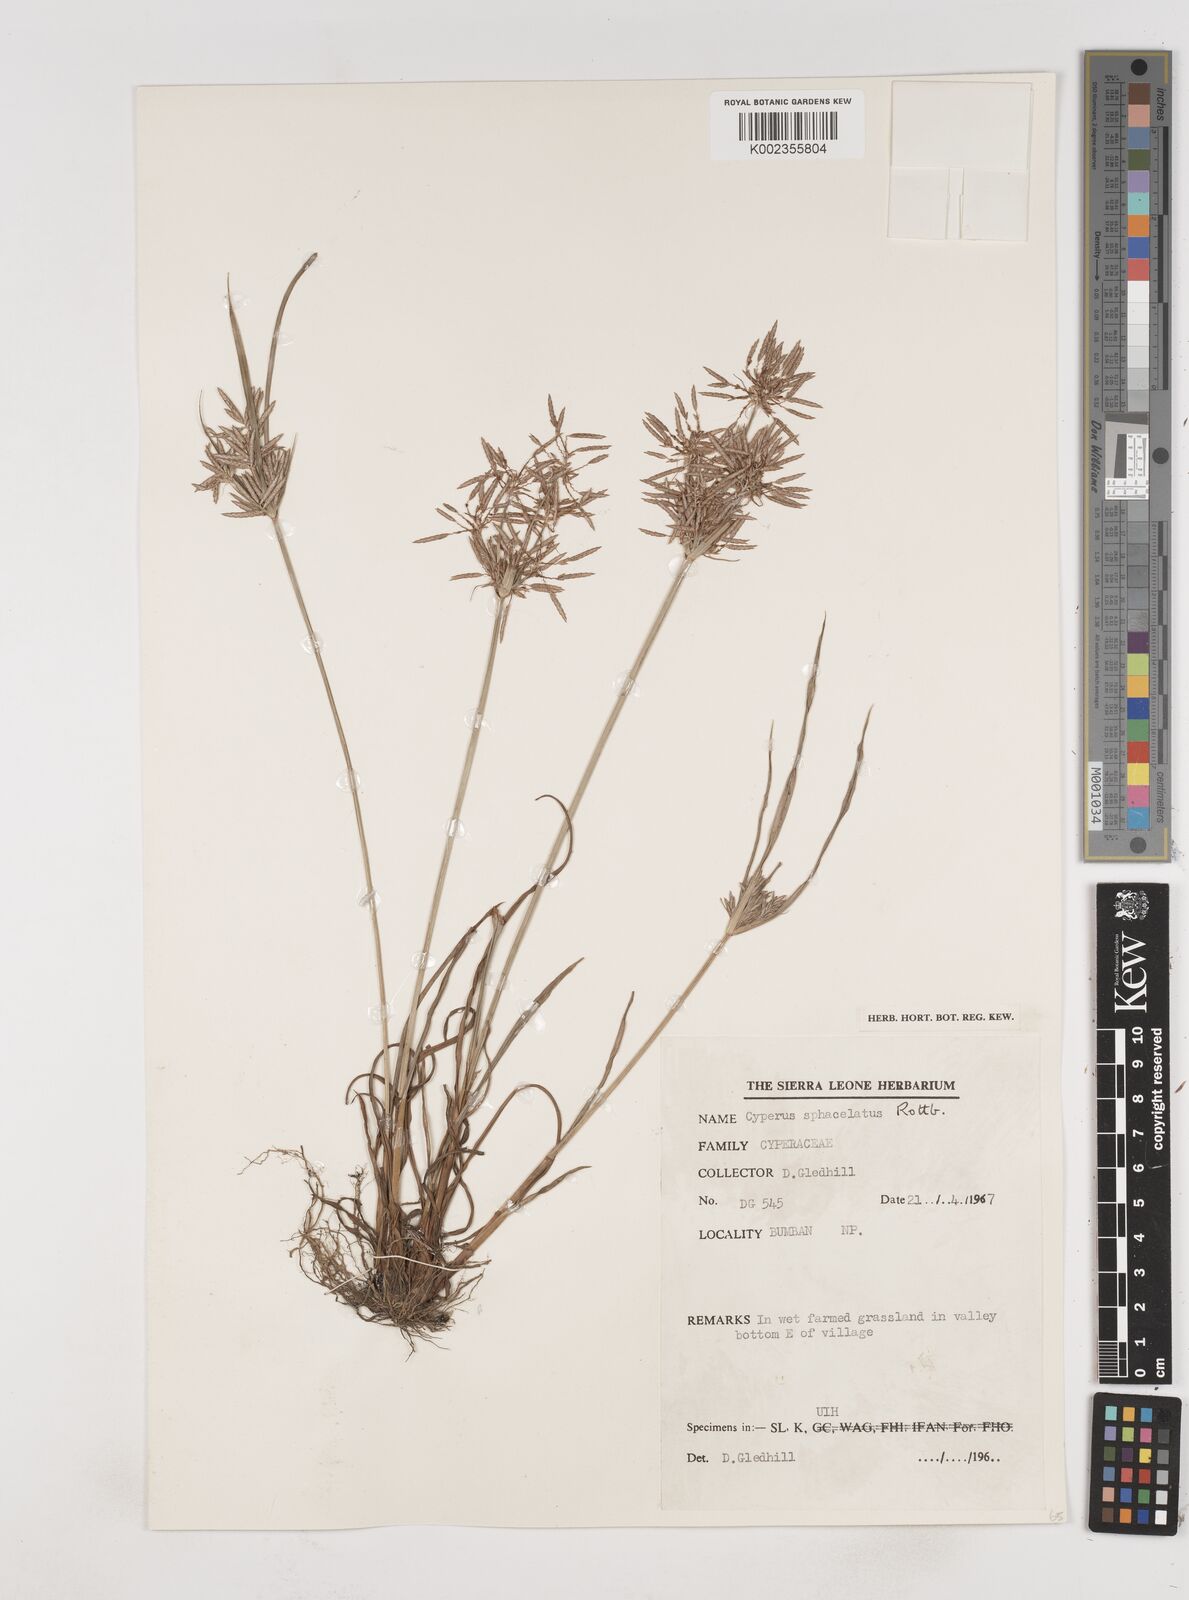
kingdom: Plantae
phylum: Tracheophyta
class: Liliopsida
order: Poales
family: Cyperaceae
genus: Cyperus
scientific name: Cyperus sphacelatus
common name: Roadside flatsedge
